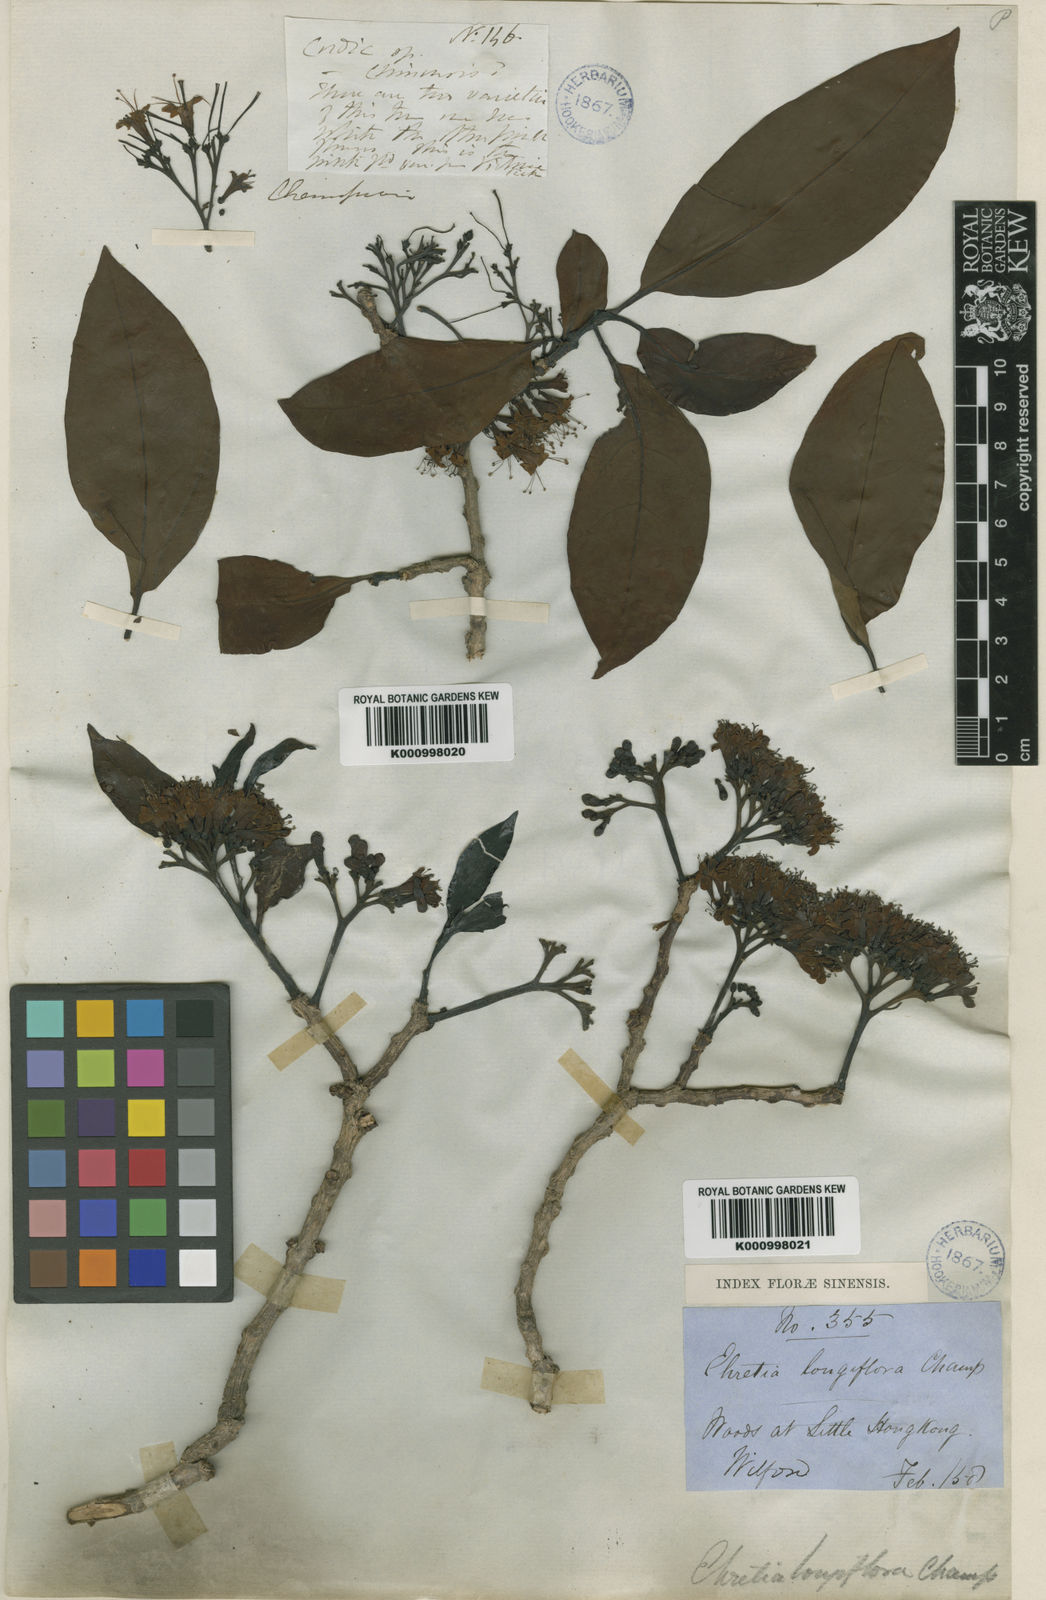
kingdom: Plantae
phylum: Tracheophyta
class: Magnoliopsida
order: Boraginales
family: Ehretiaceae
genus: Ehretia
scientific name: Ehretia longiflora
